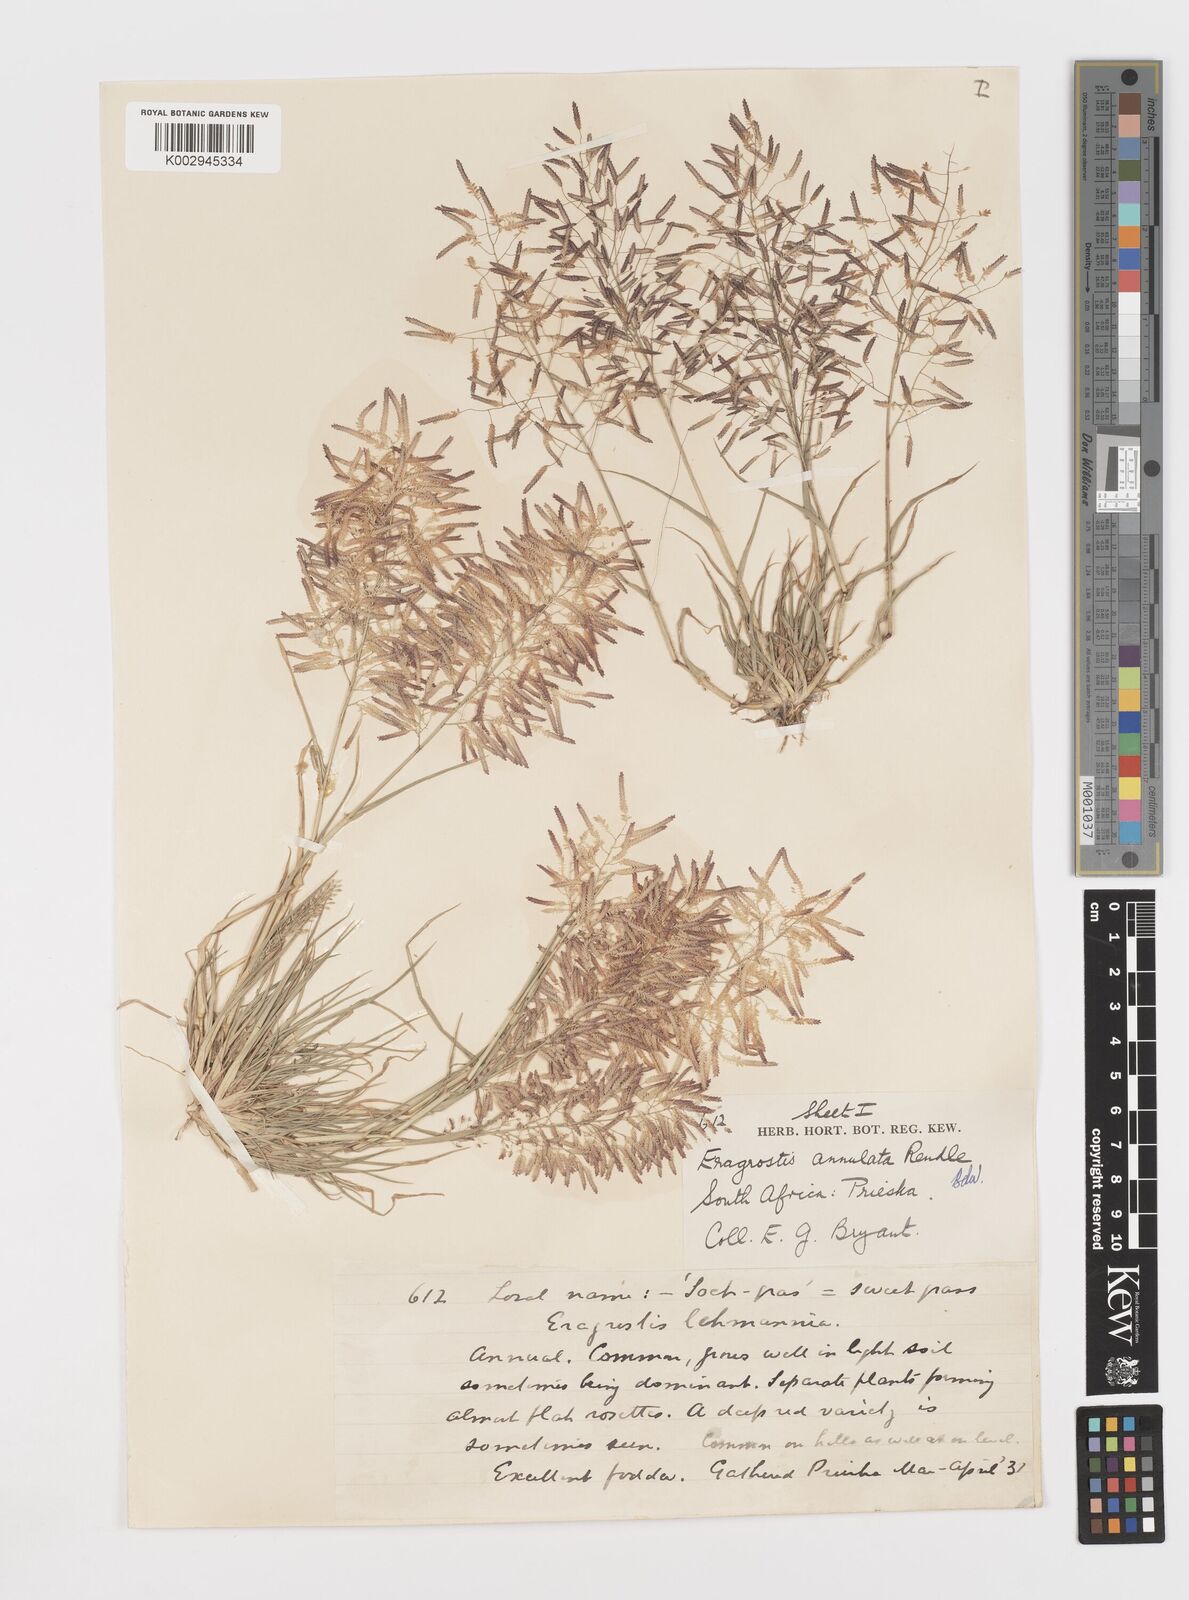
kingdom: Plantae
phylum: Tracheophyta
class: Liliopsida
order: Poales
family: Poaceae
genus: Eragrostis
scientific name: Eragrostis annulata
